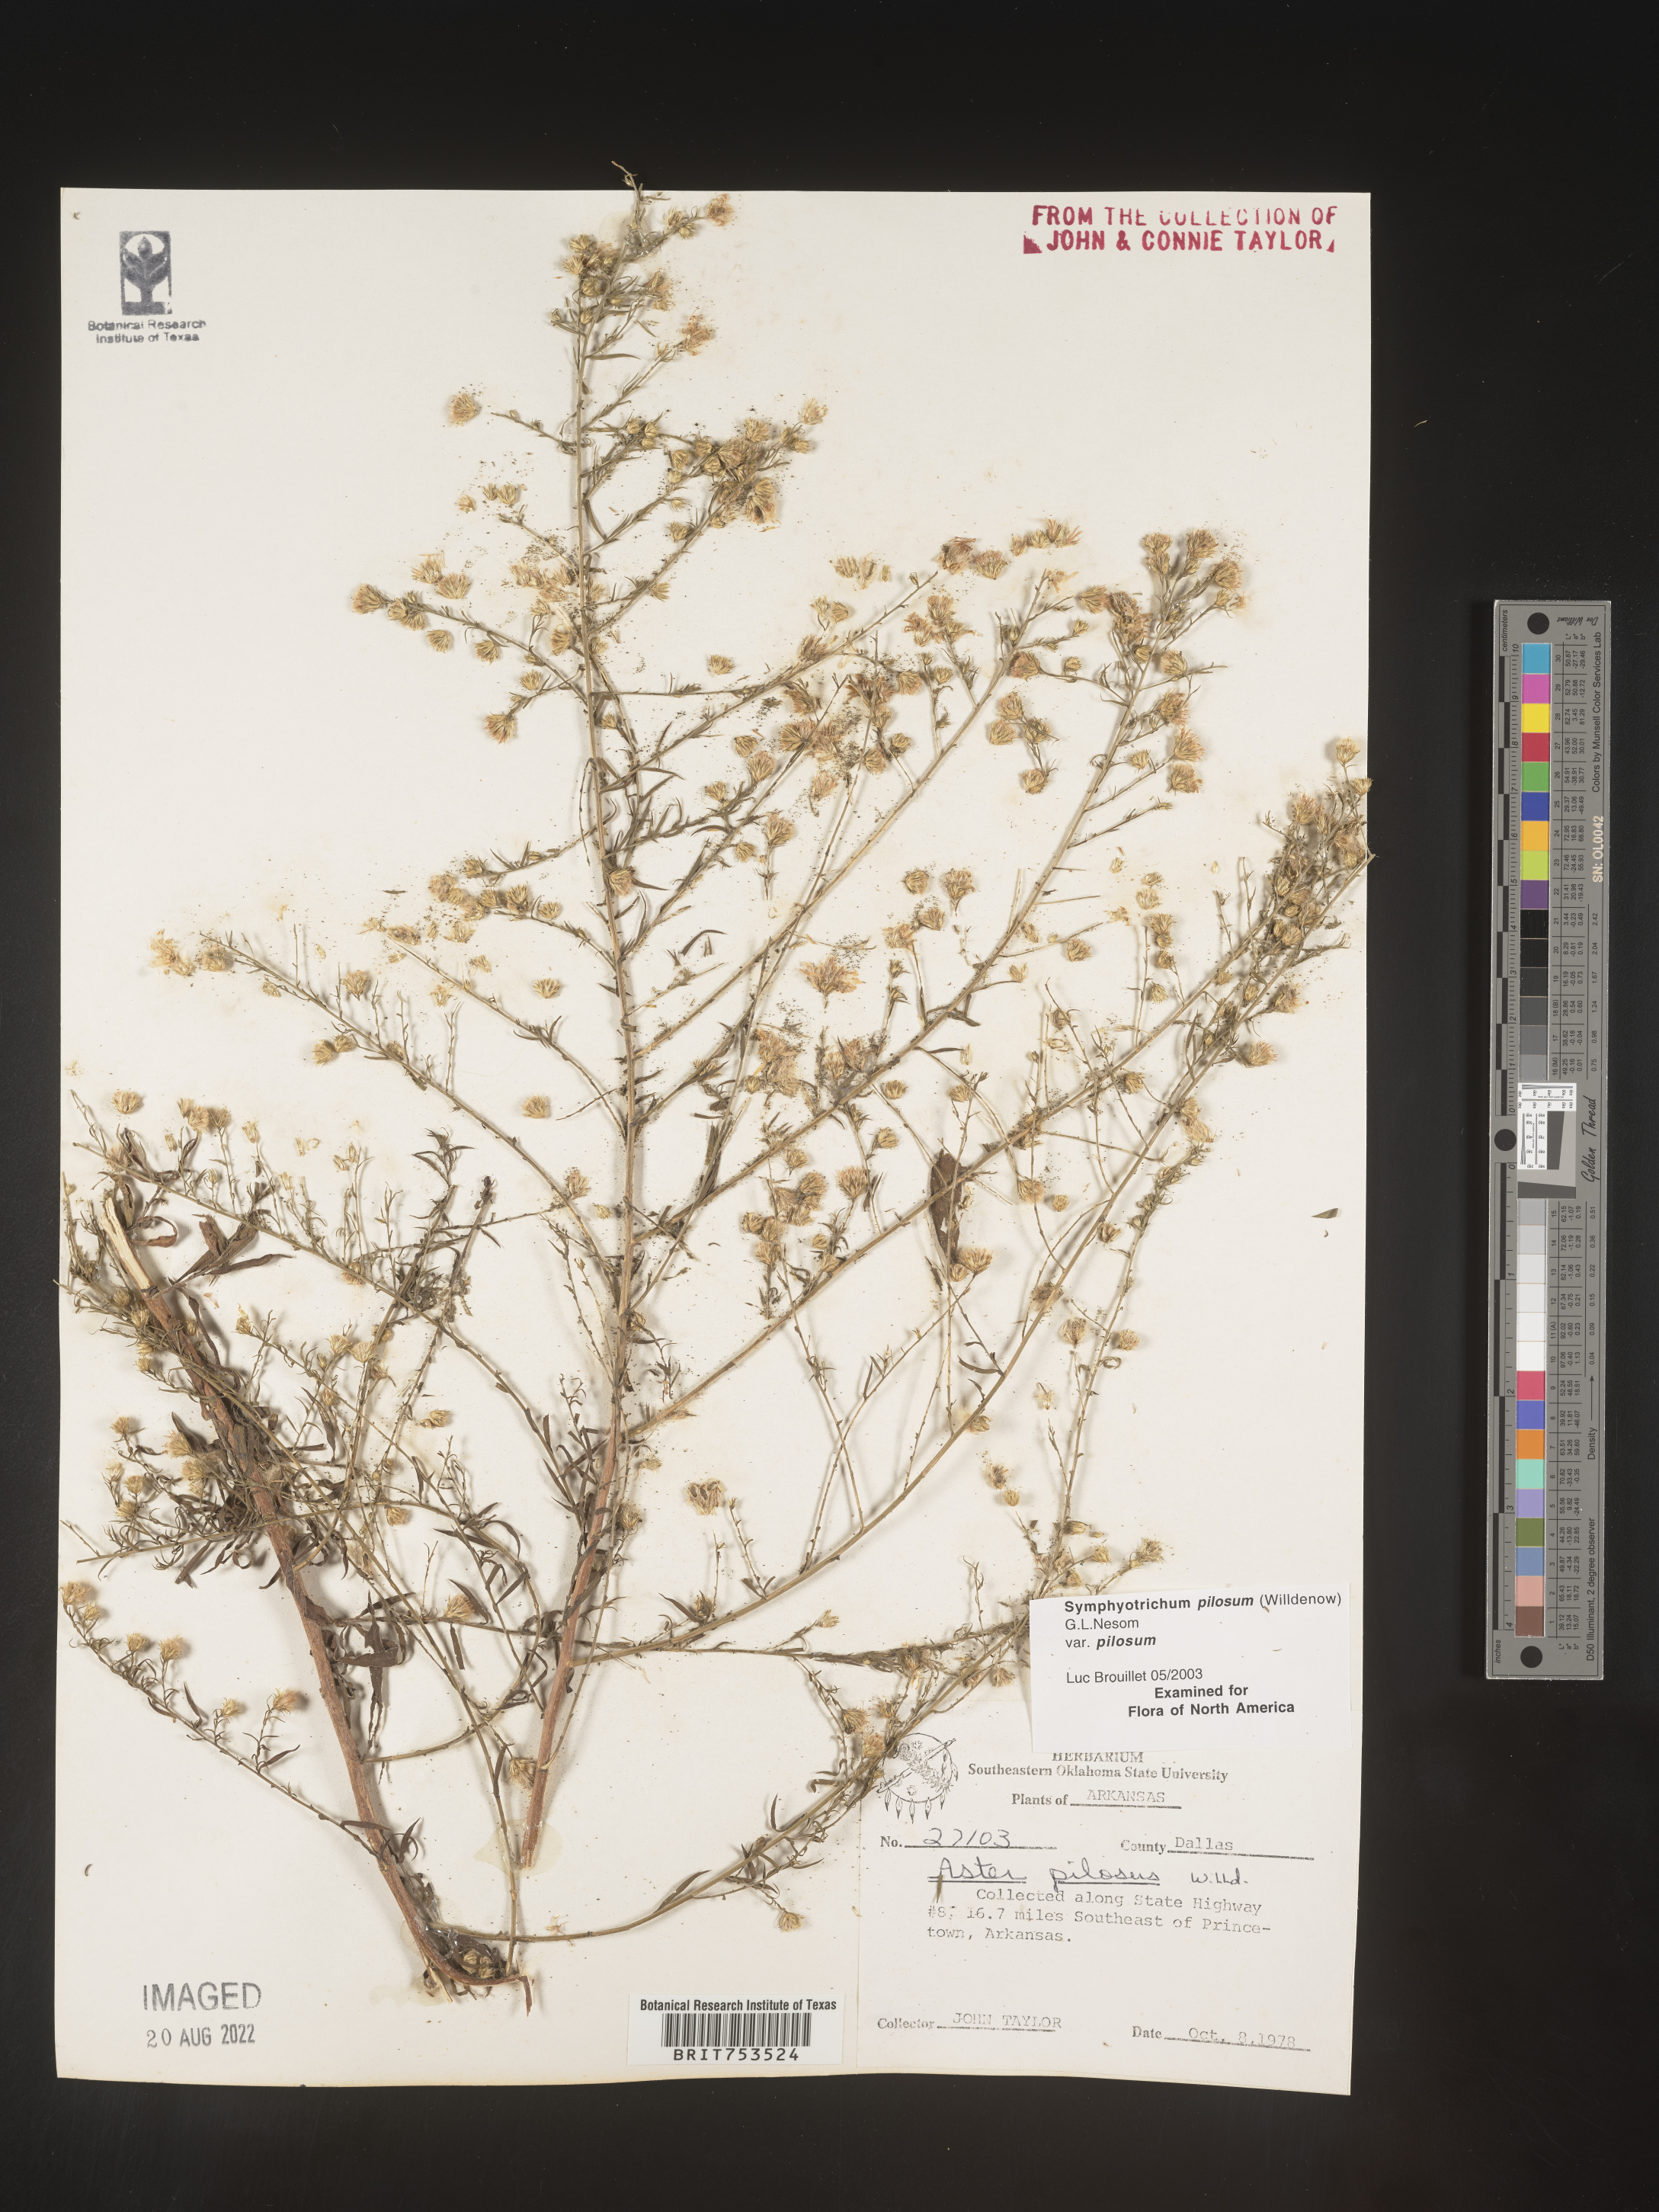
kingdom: Plantae
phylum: Tracheophyta
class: Magnoliopsida
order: Asterales
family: Asteraceae
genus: Symphyotrichum
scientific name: Symphyotrichum pilosum
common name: Awl aster
